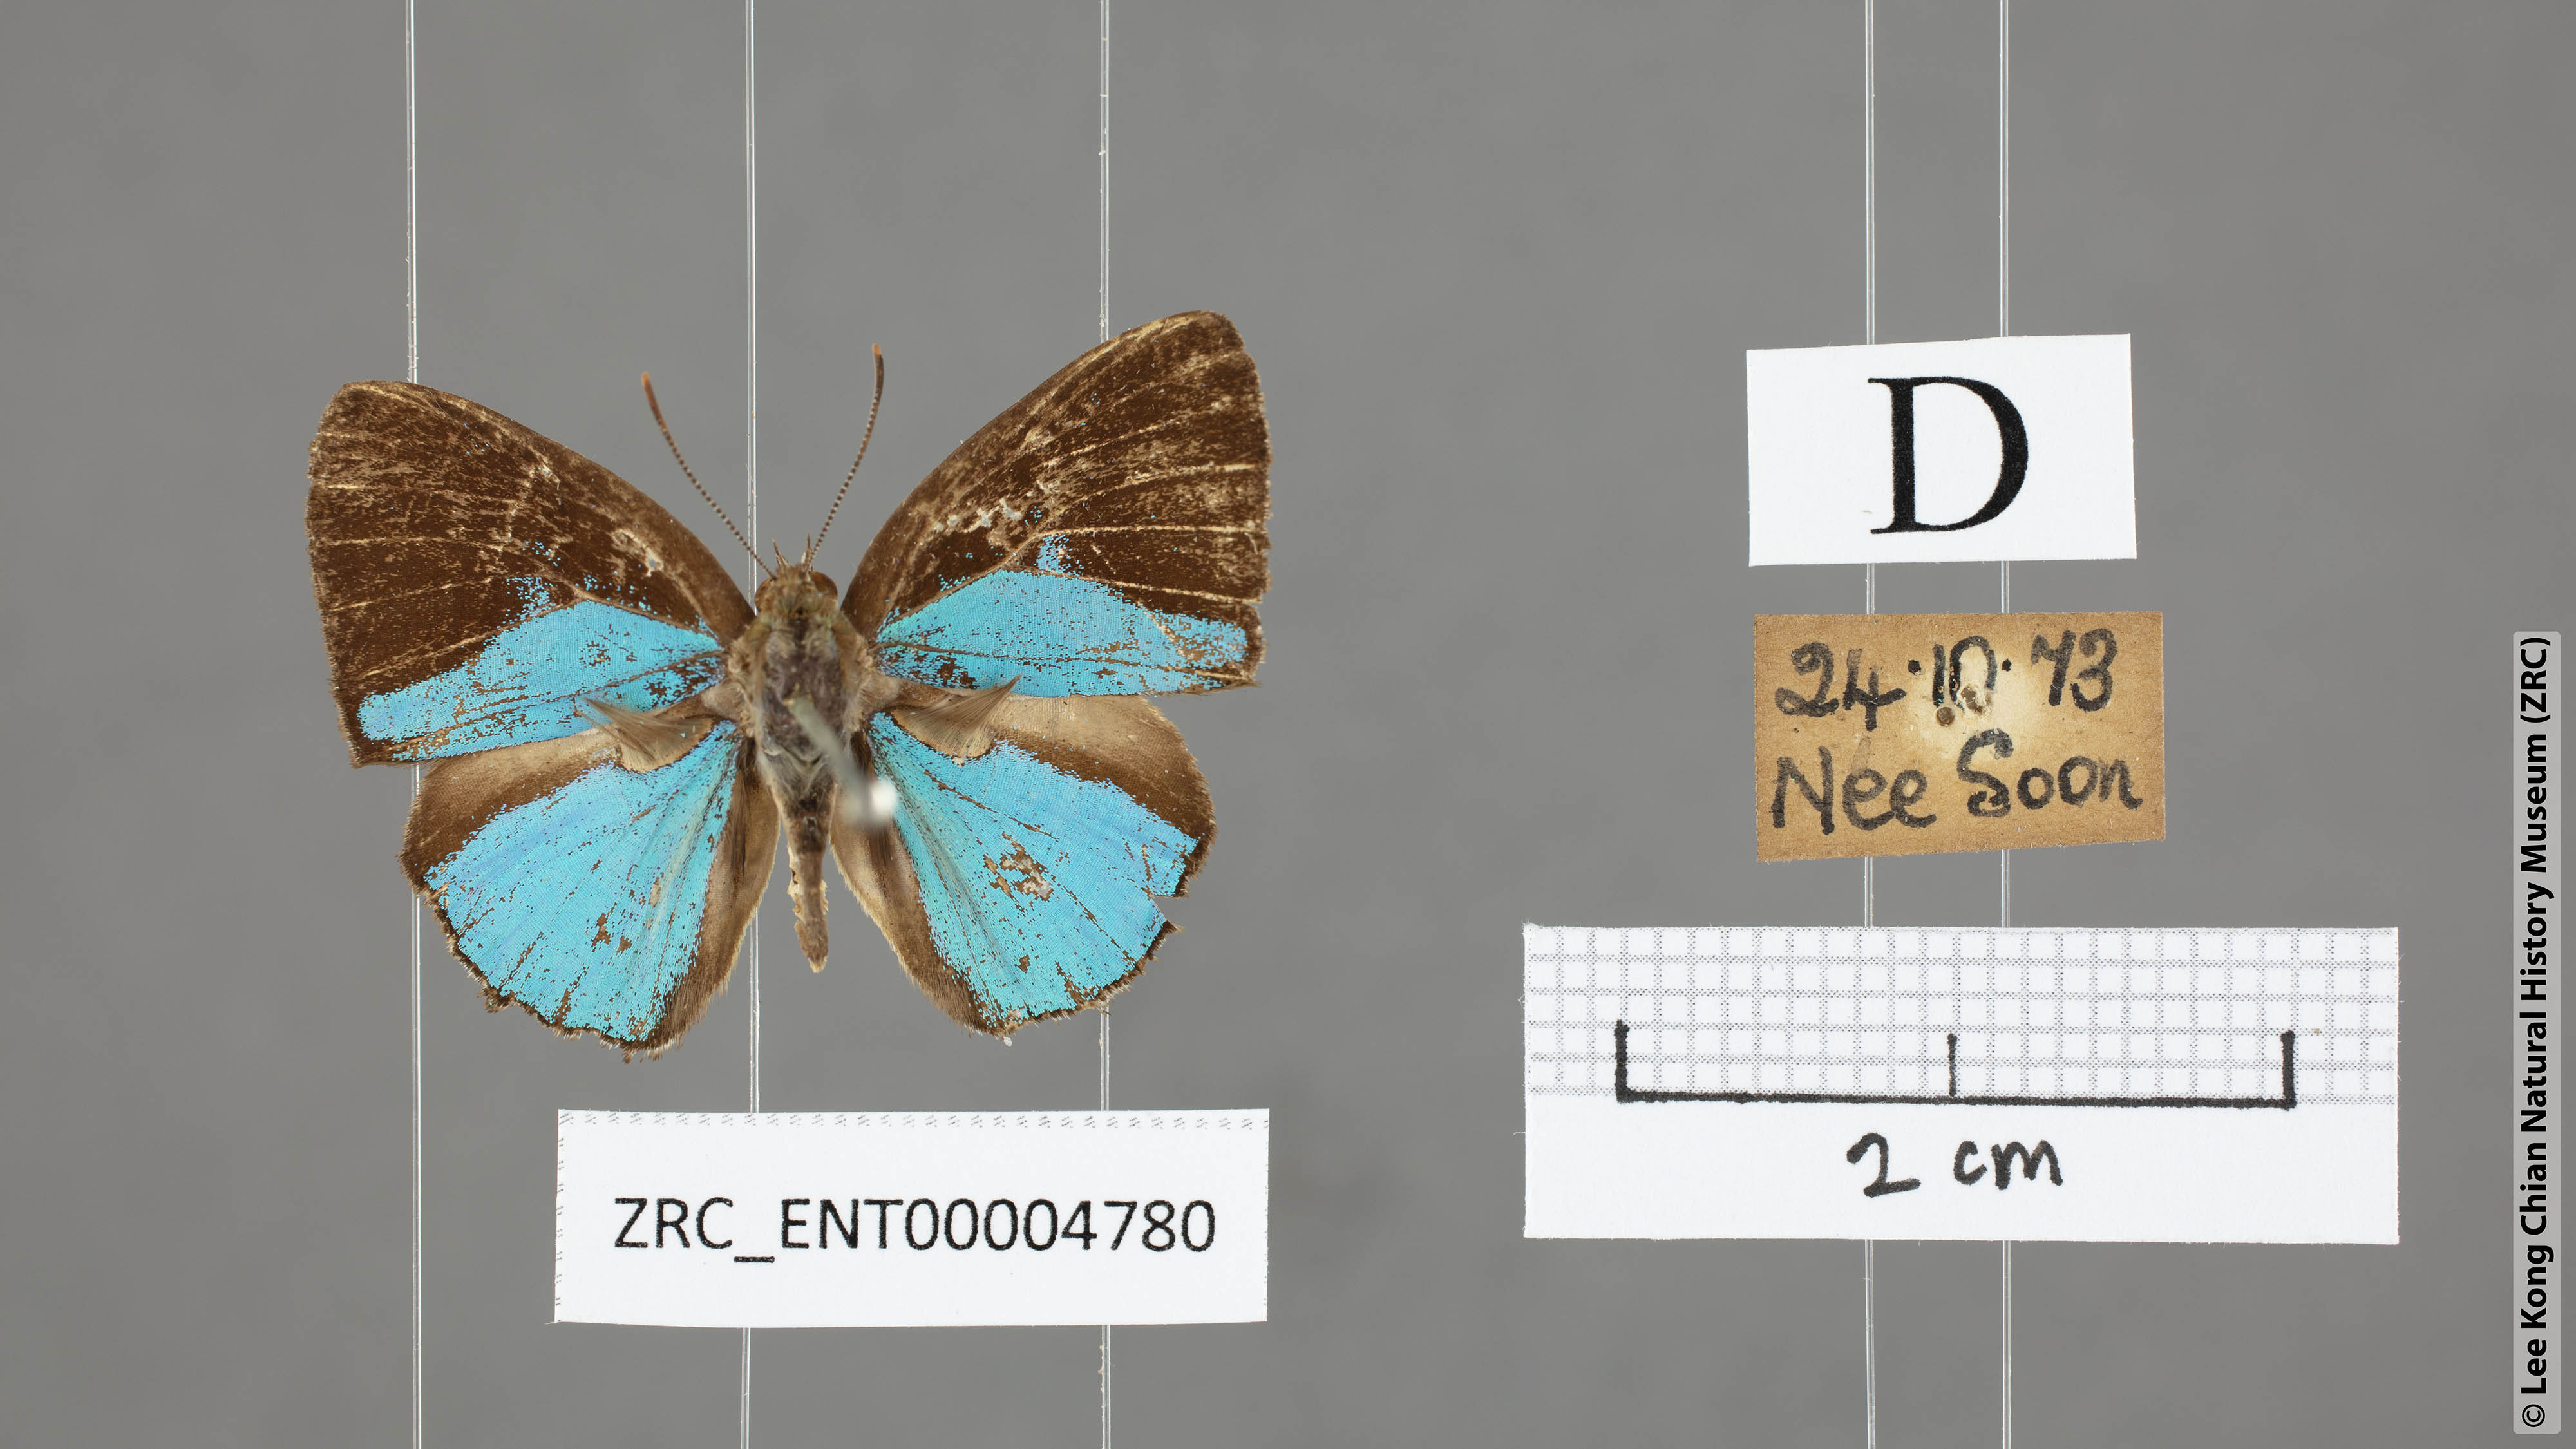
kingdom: Animalia
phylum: Arthropoda
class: Insecta
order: Lepidoptera
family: Lycaenidae
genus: Poritia
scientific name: Poritia sumatrae
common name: Sumatran gem
